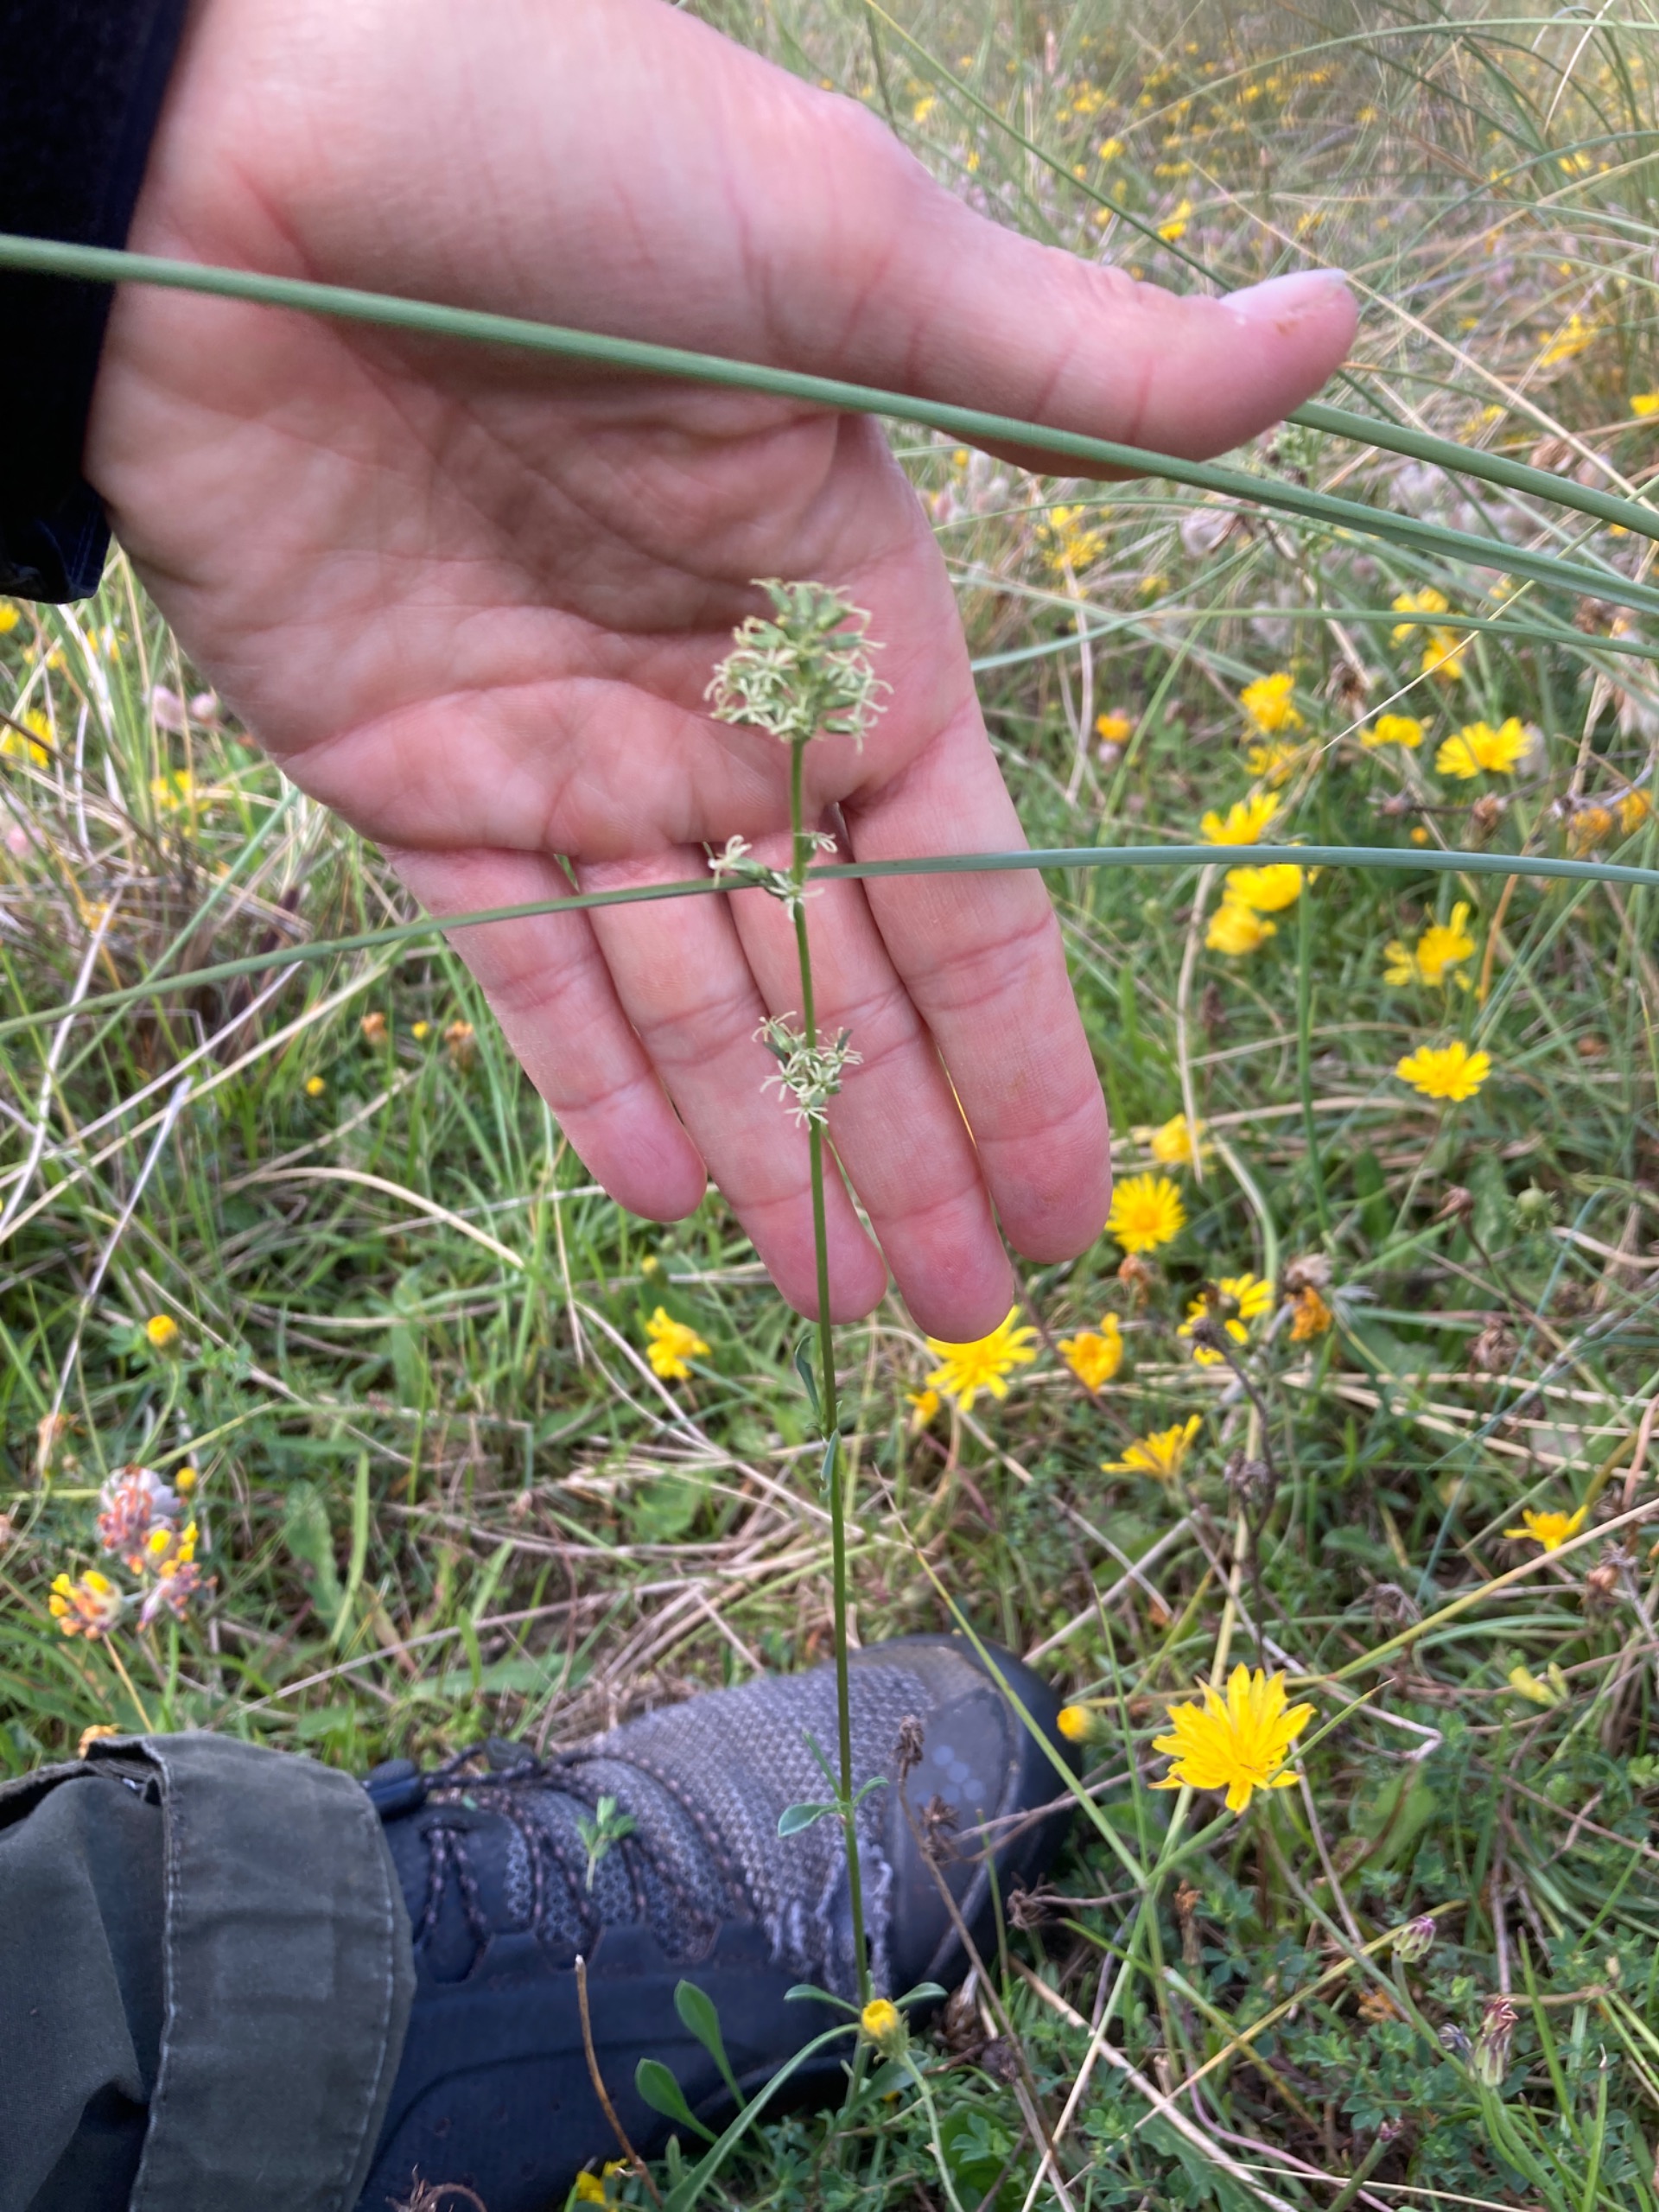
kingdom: Plantae
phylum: Tracheophyta
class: Magnoliopsida
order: Caryophyllales
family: Caryophyllaceae
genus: Silene
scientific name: Silene otites
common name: Klit-limurt
